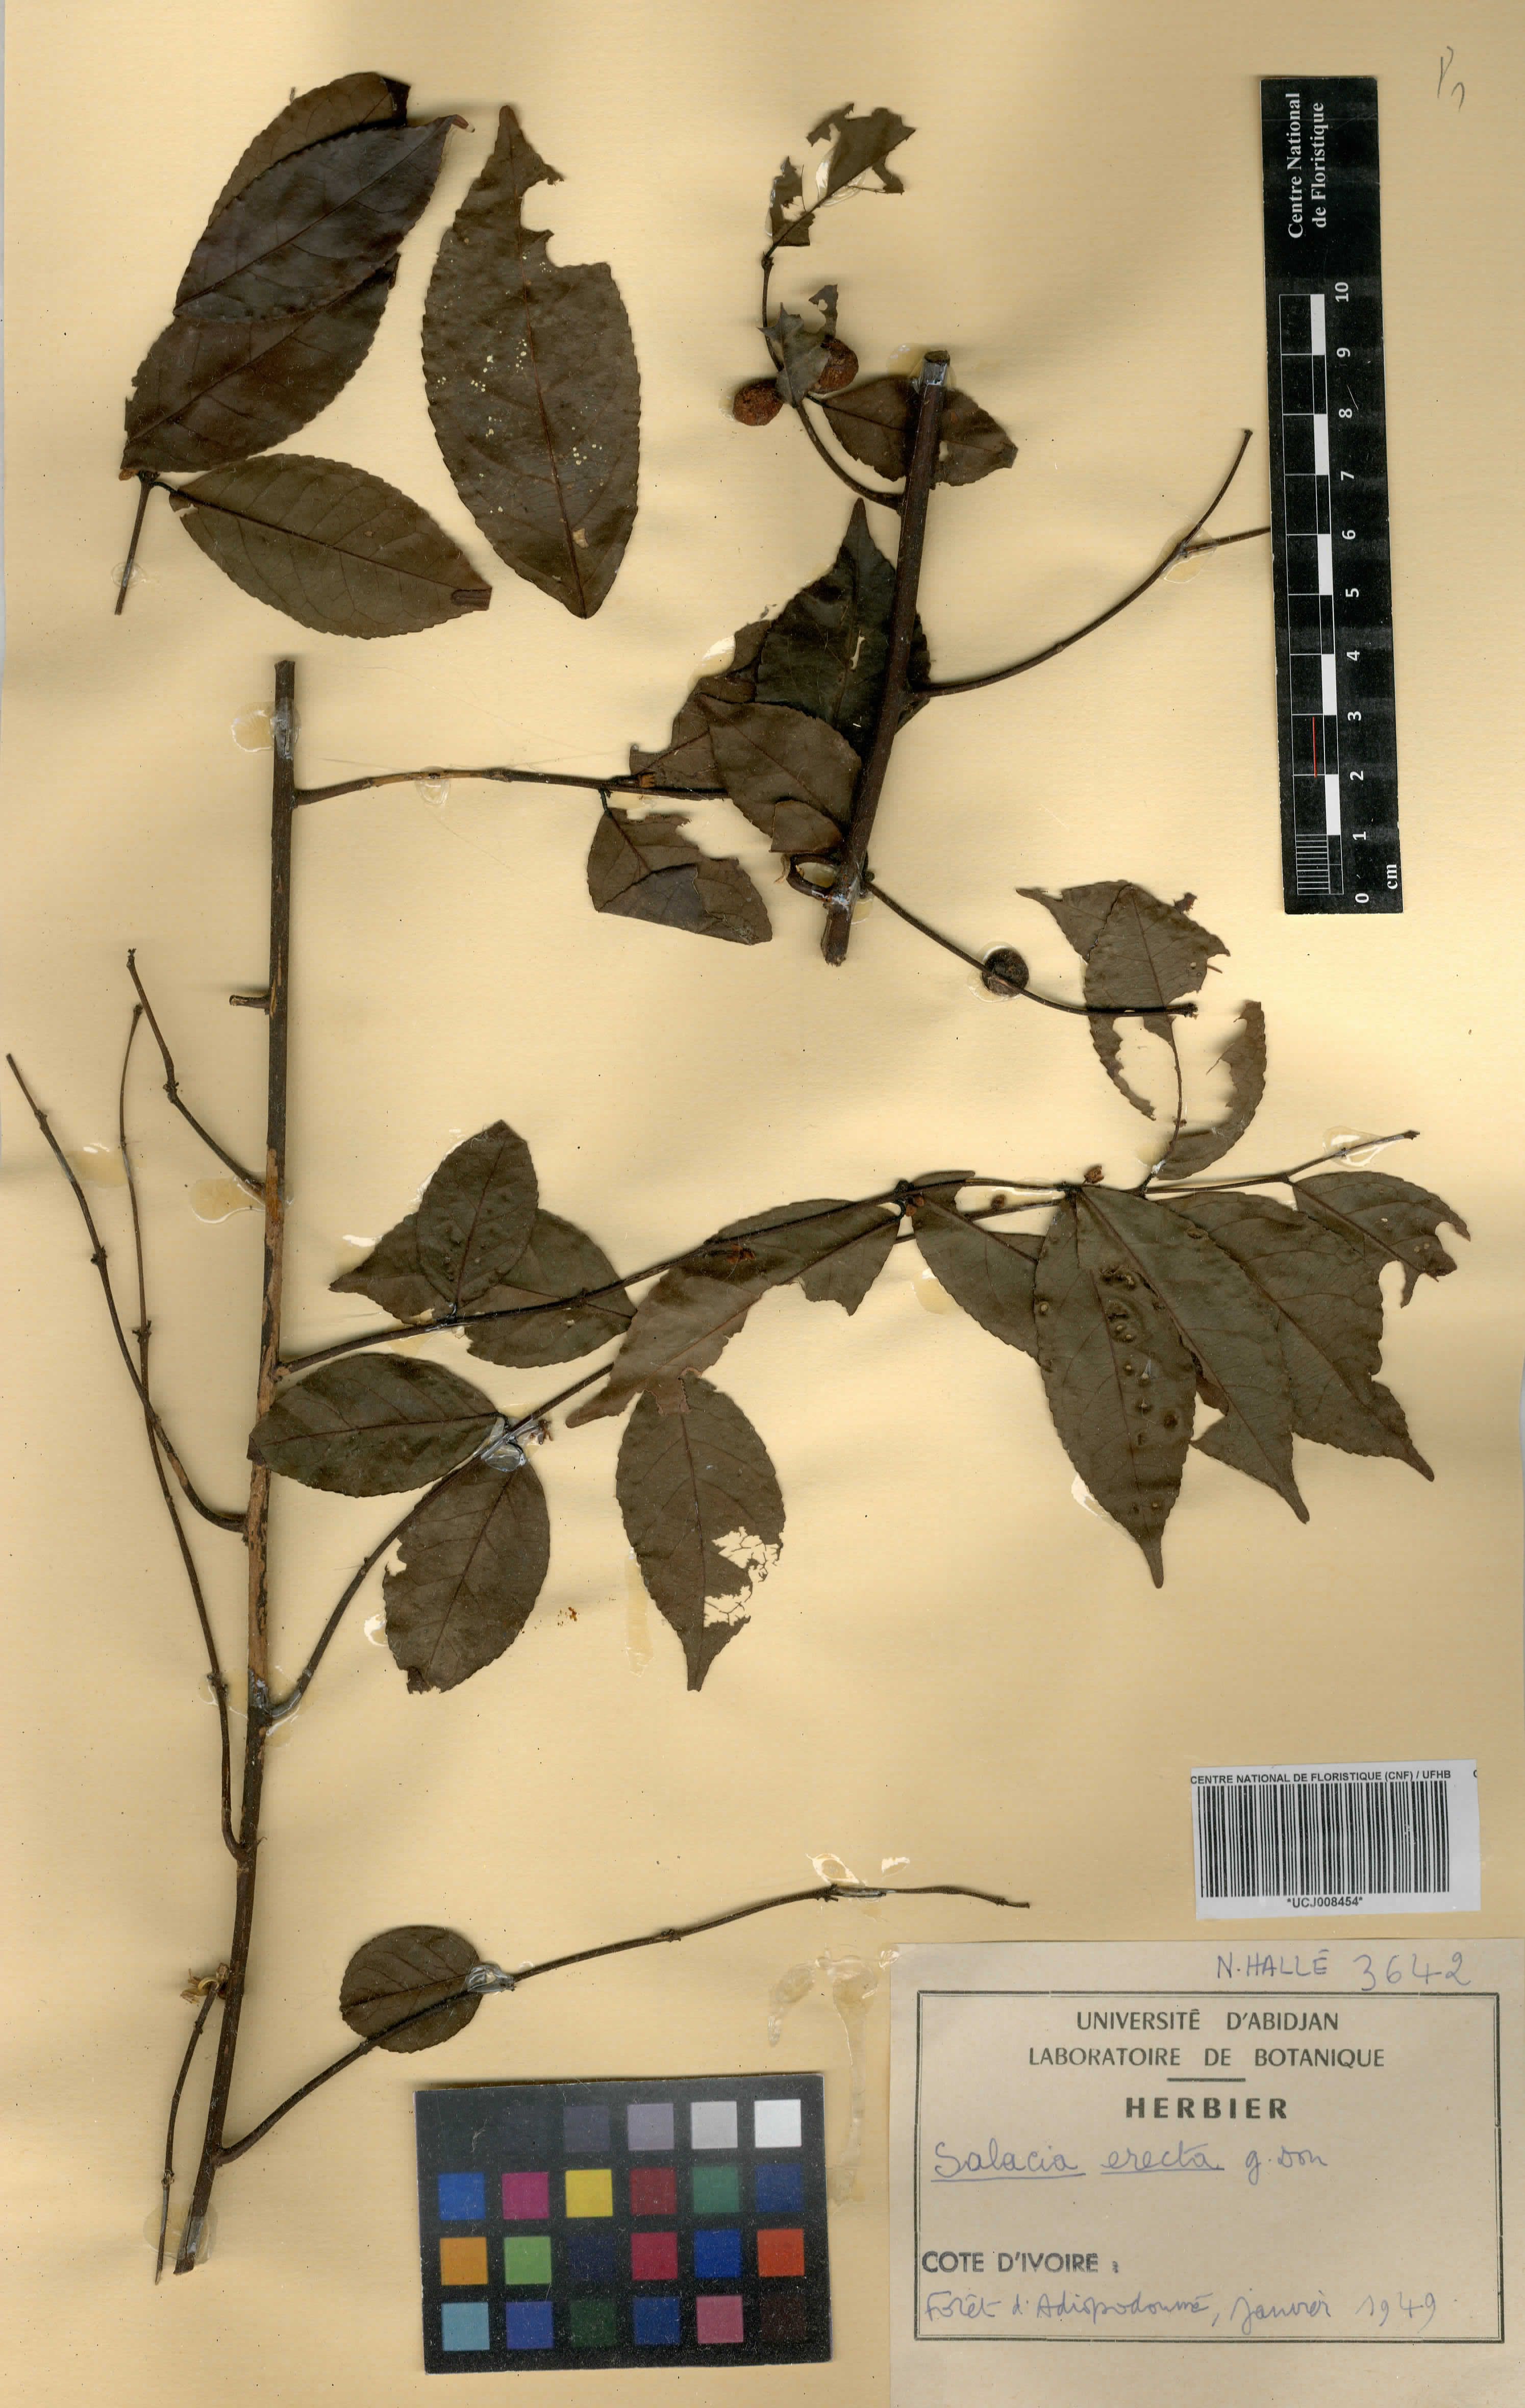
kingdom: Plantae
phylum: Tracheophyta
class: Magnoliopsida
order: Celastrales
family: Celastraceae
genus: Salacia
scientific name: Salacia erecta
